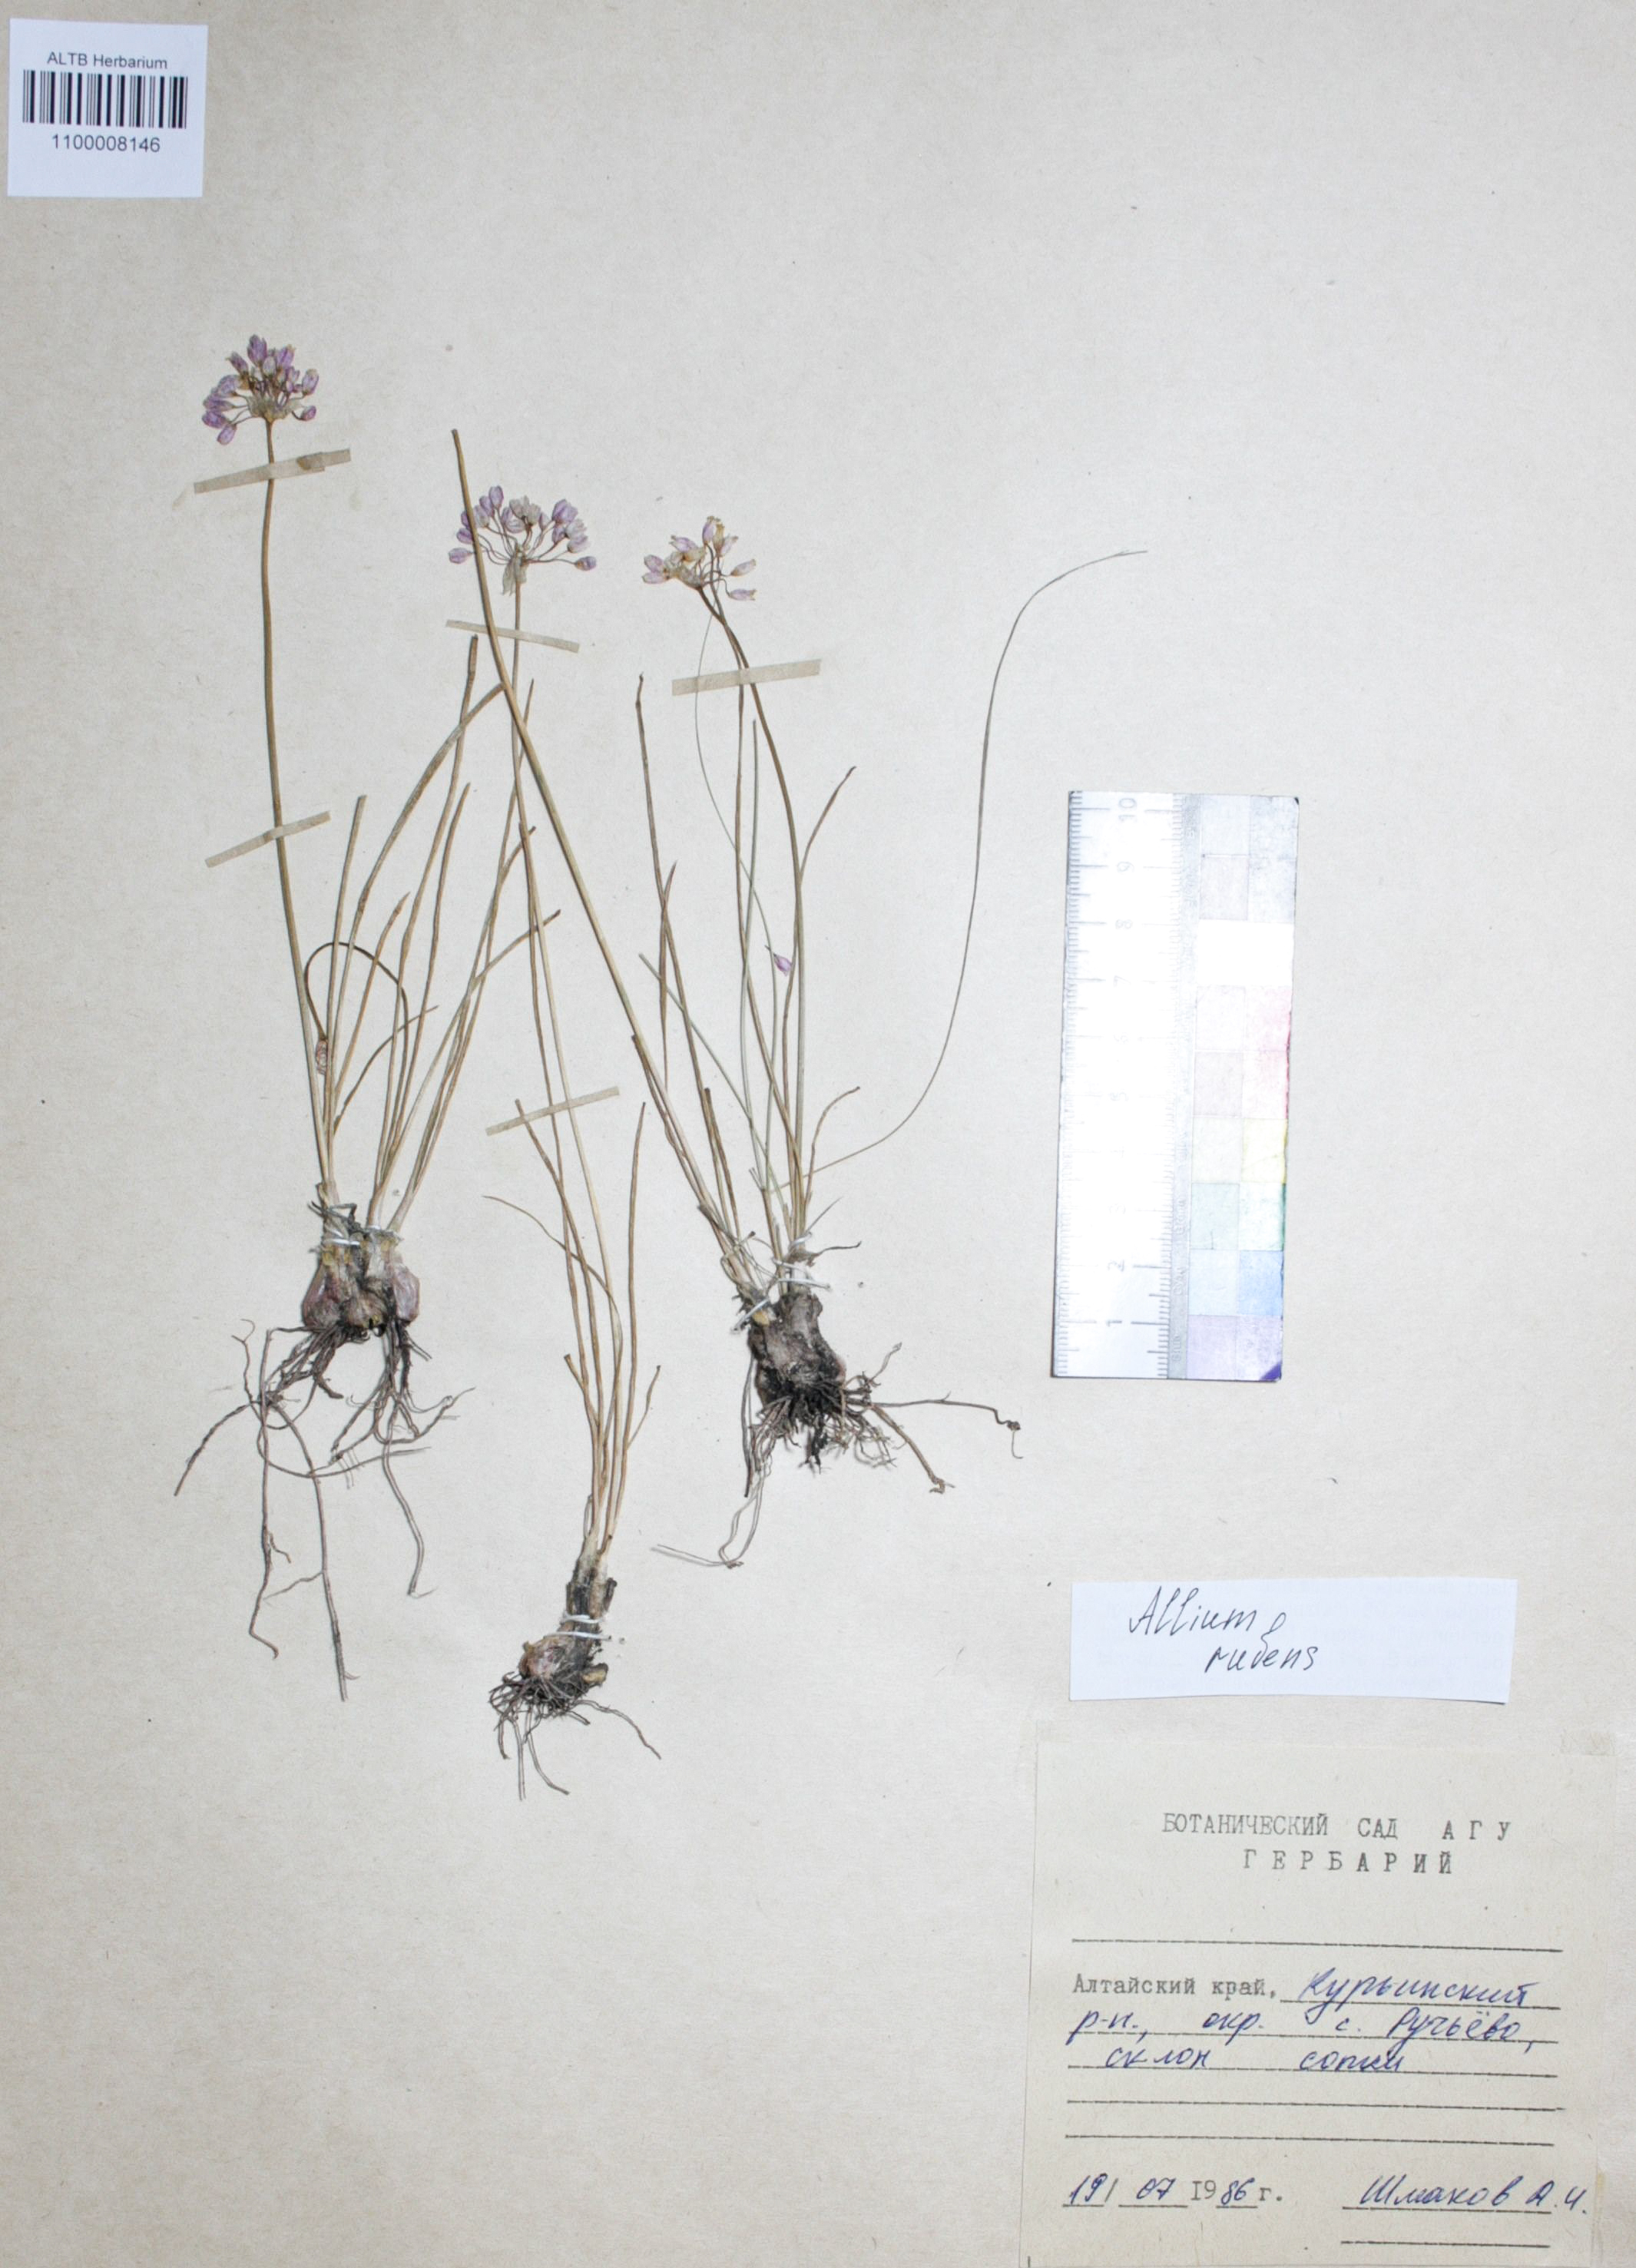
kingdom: Plantae
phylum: Tracheophyta
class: Liliopsida
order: Asparagales
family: Amaryllidaceae
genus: Allium
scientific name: Allium rubens
